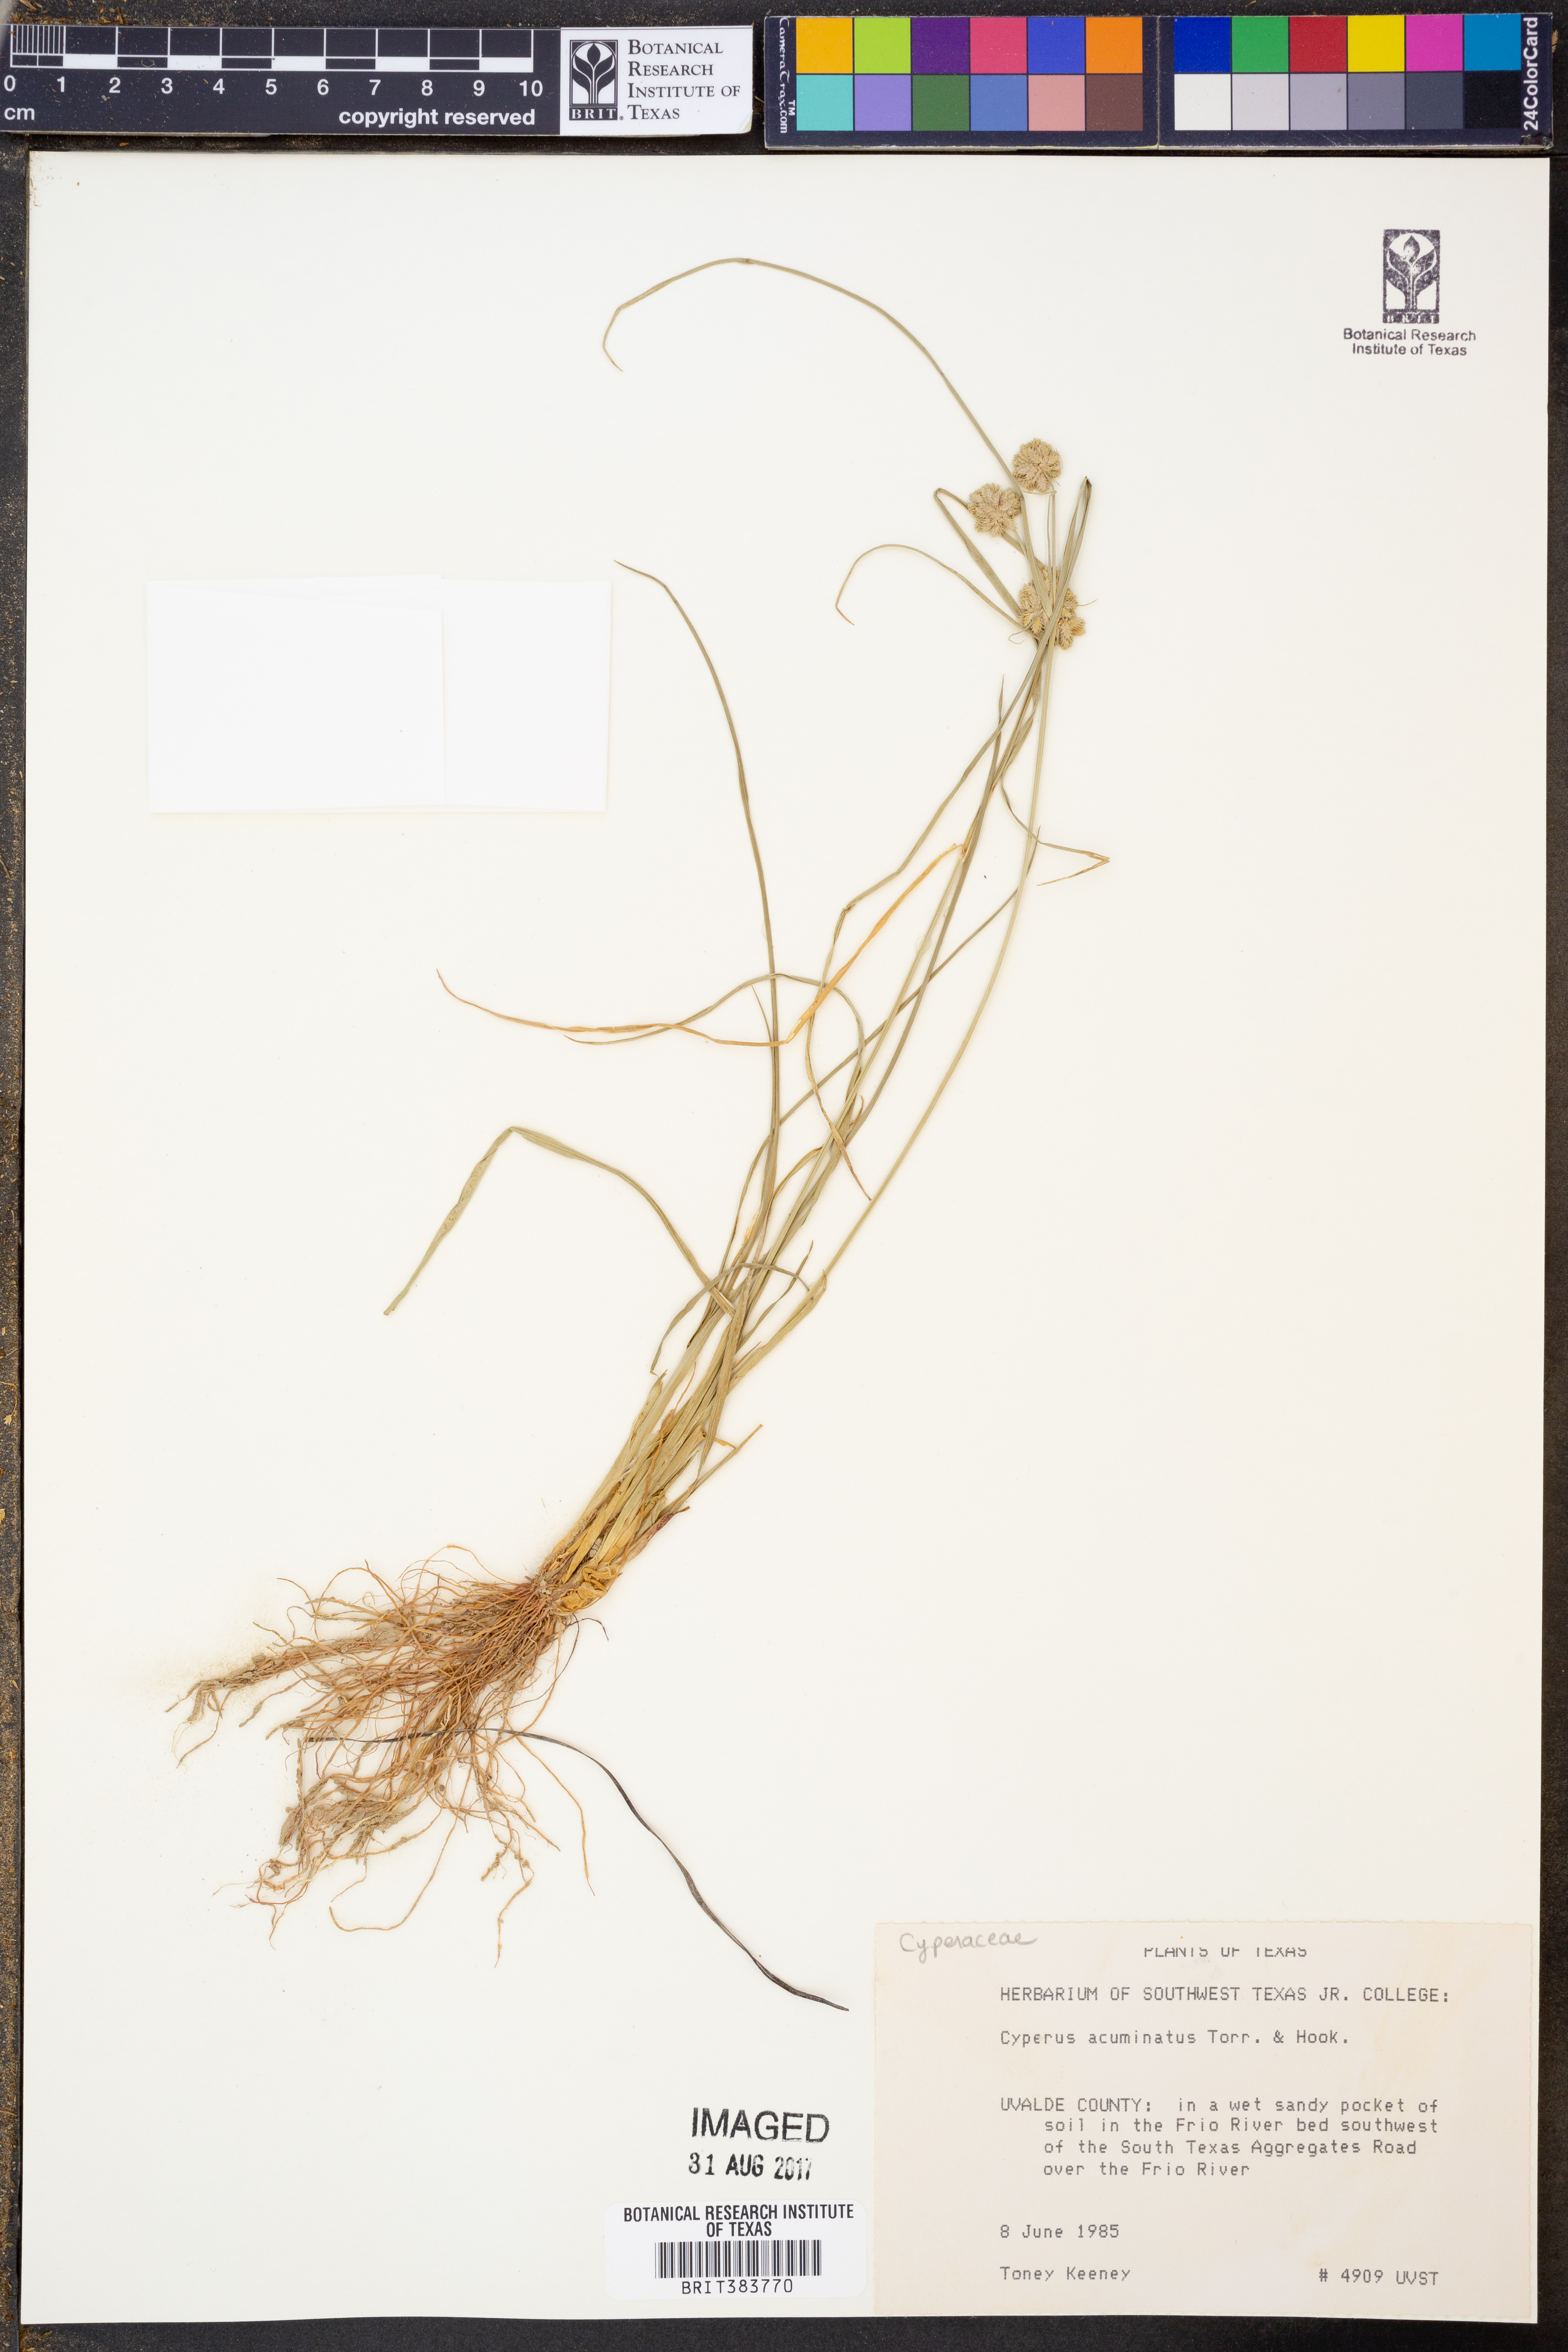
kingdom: Plantae
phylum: Tracheophyta
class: Liliopsida
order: Poales
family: Cyperaceae
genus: Cyperus
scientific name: Cyperus acuminatus
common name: Short-pointed cyperus
